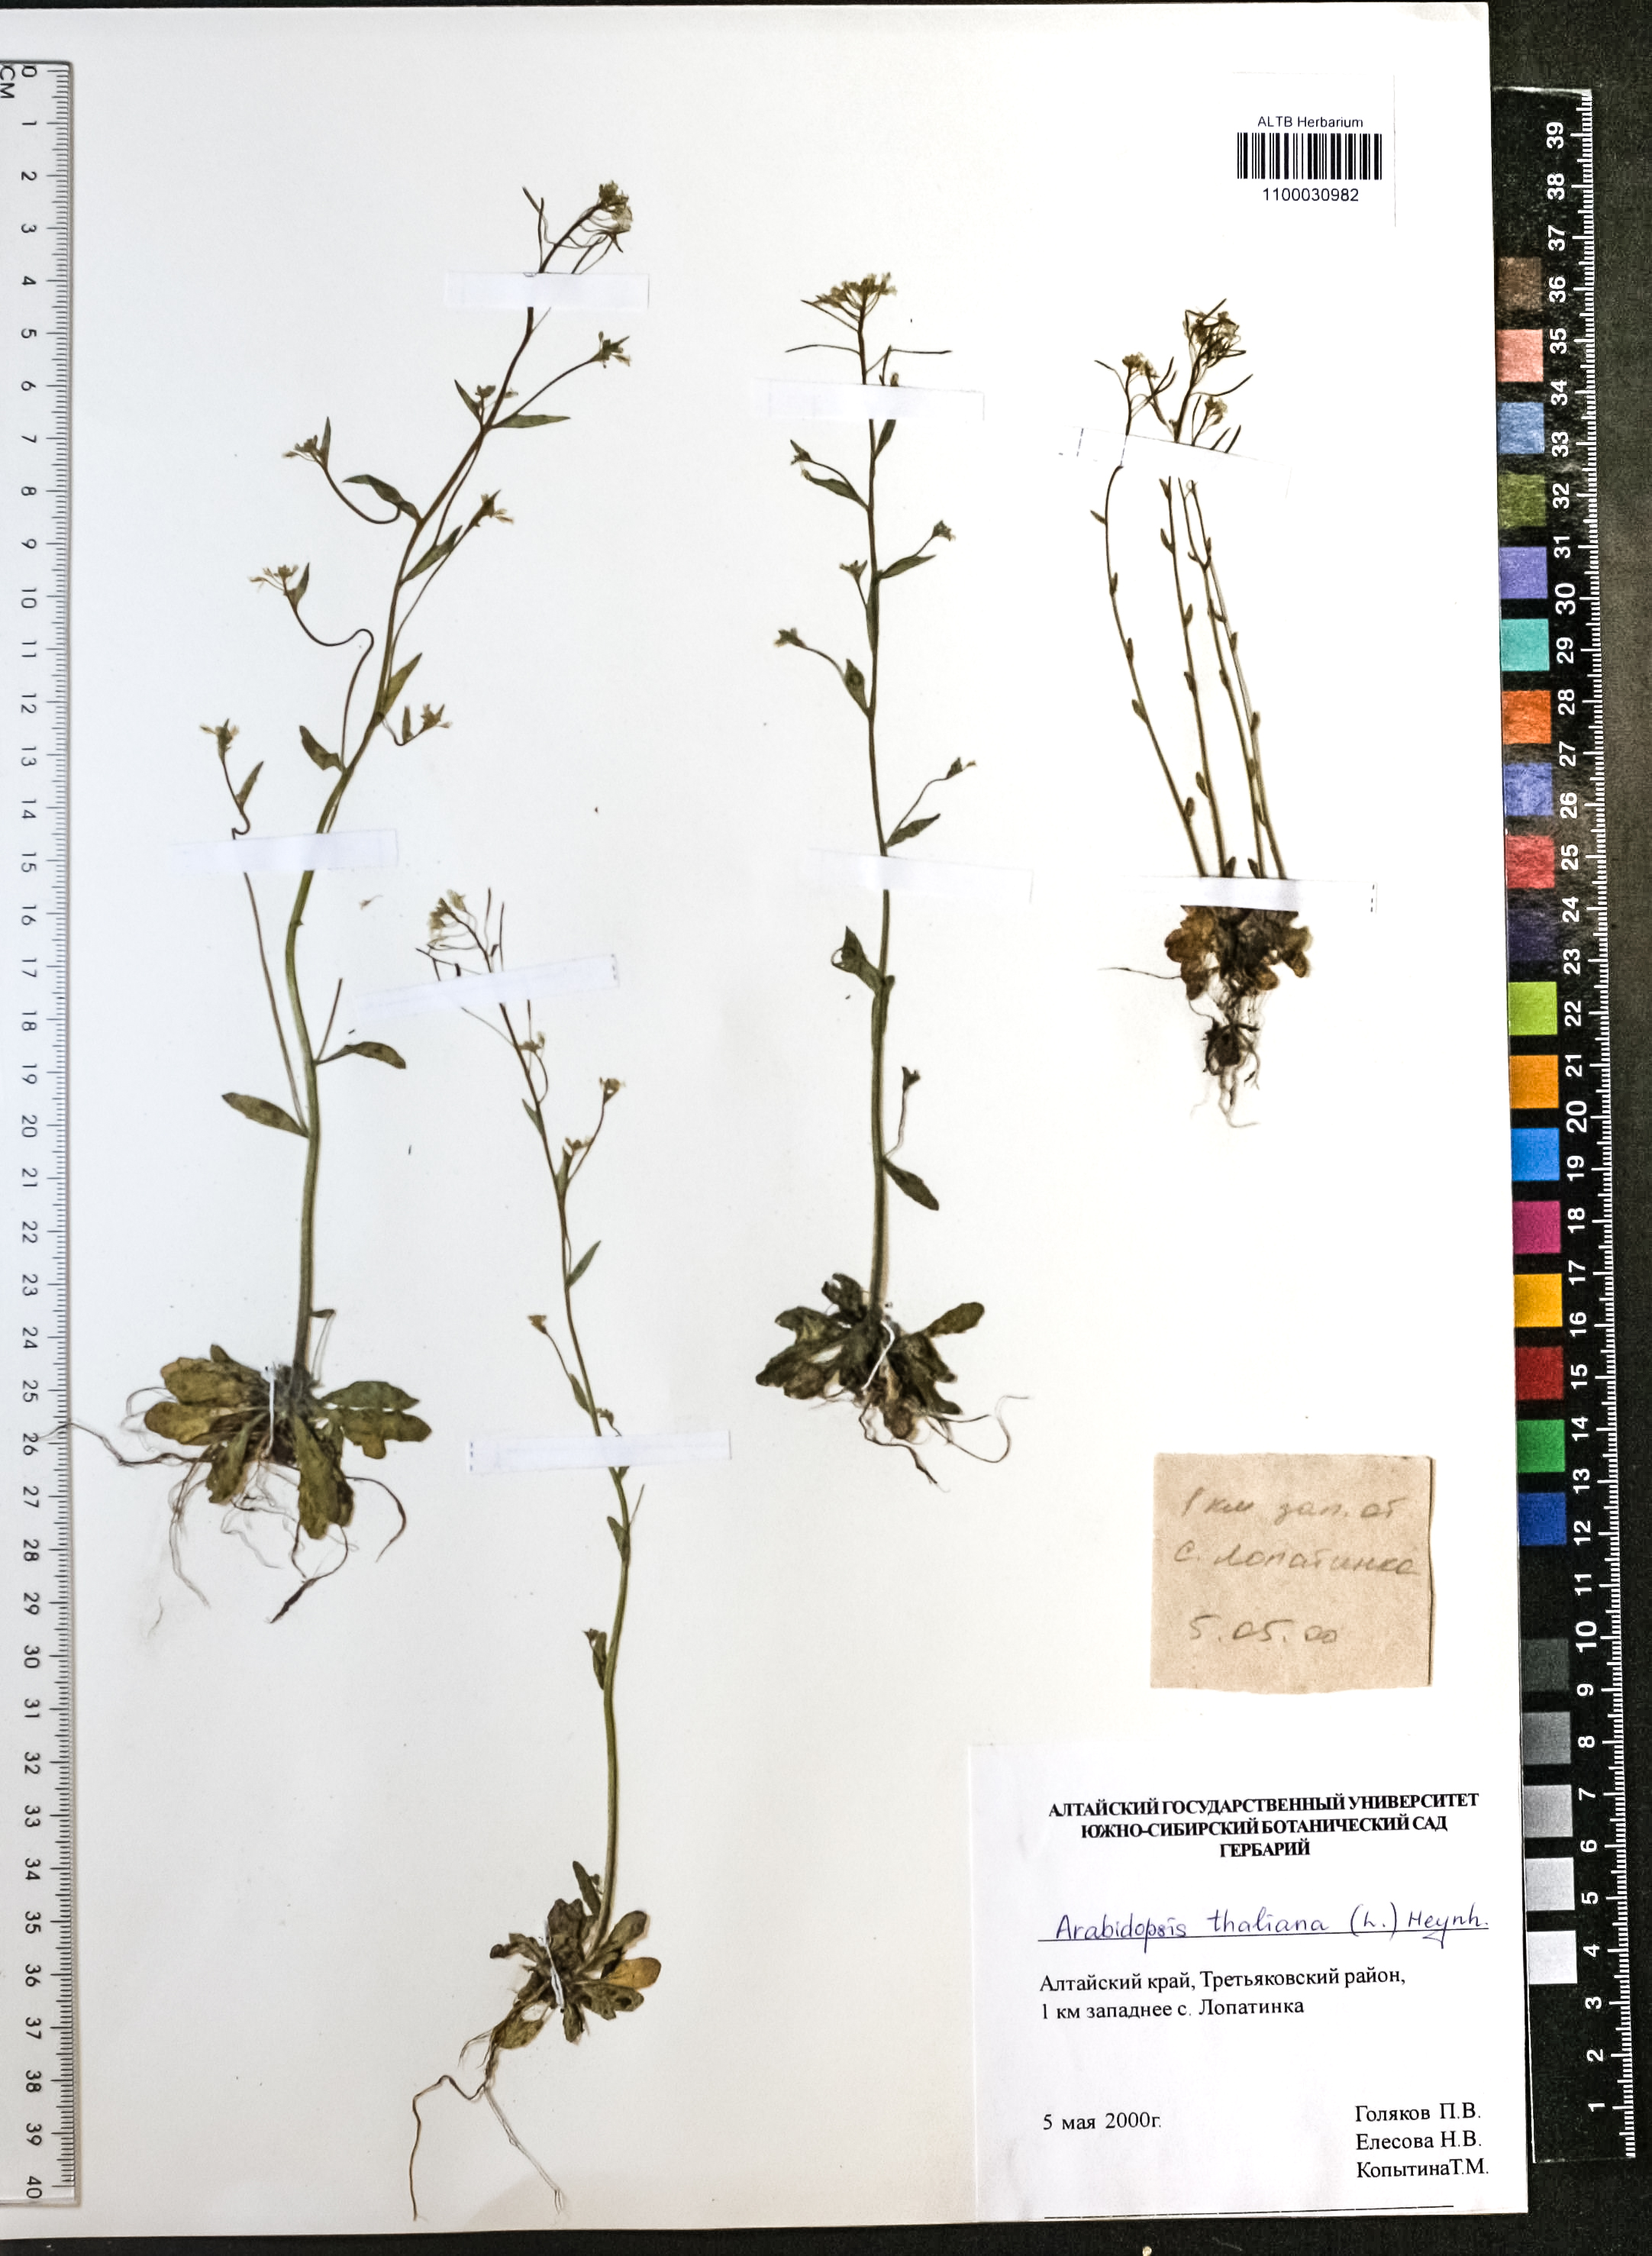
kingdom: Plantae
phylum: Tracheophyta
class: Magnoliopsida
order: Brassicales
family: Brassicaceae
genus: Arabidopsis
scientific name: Arabidopsis thaliana
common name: Thale cress
